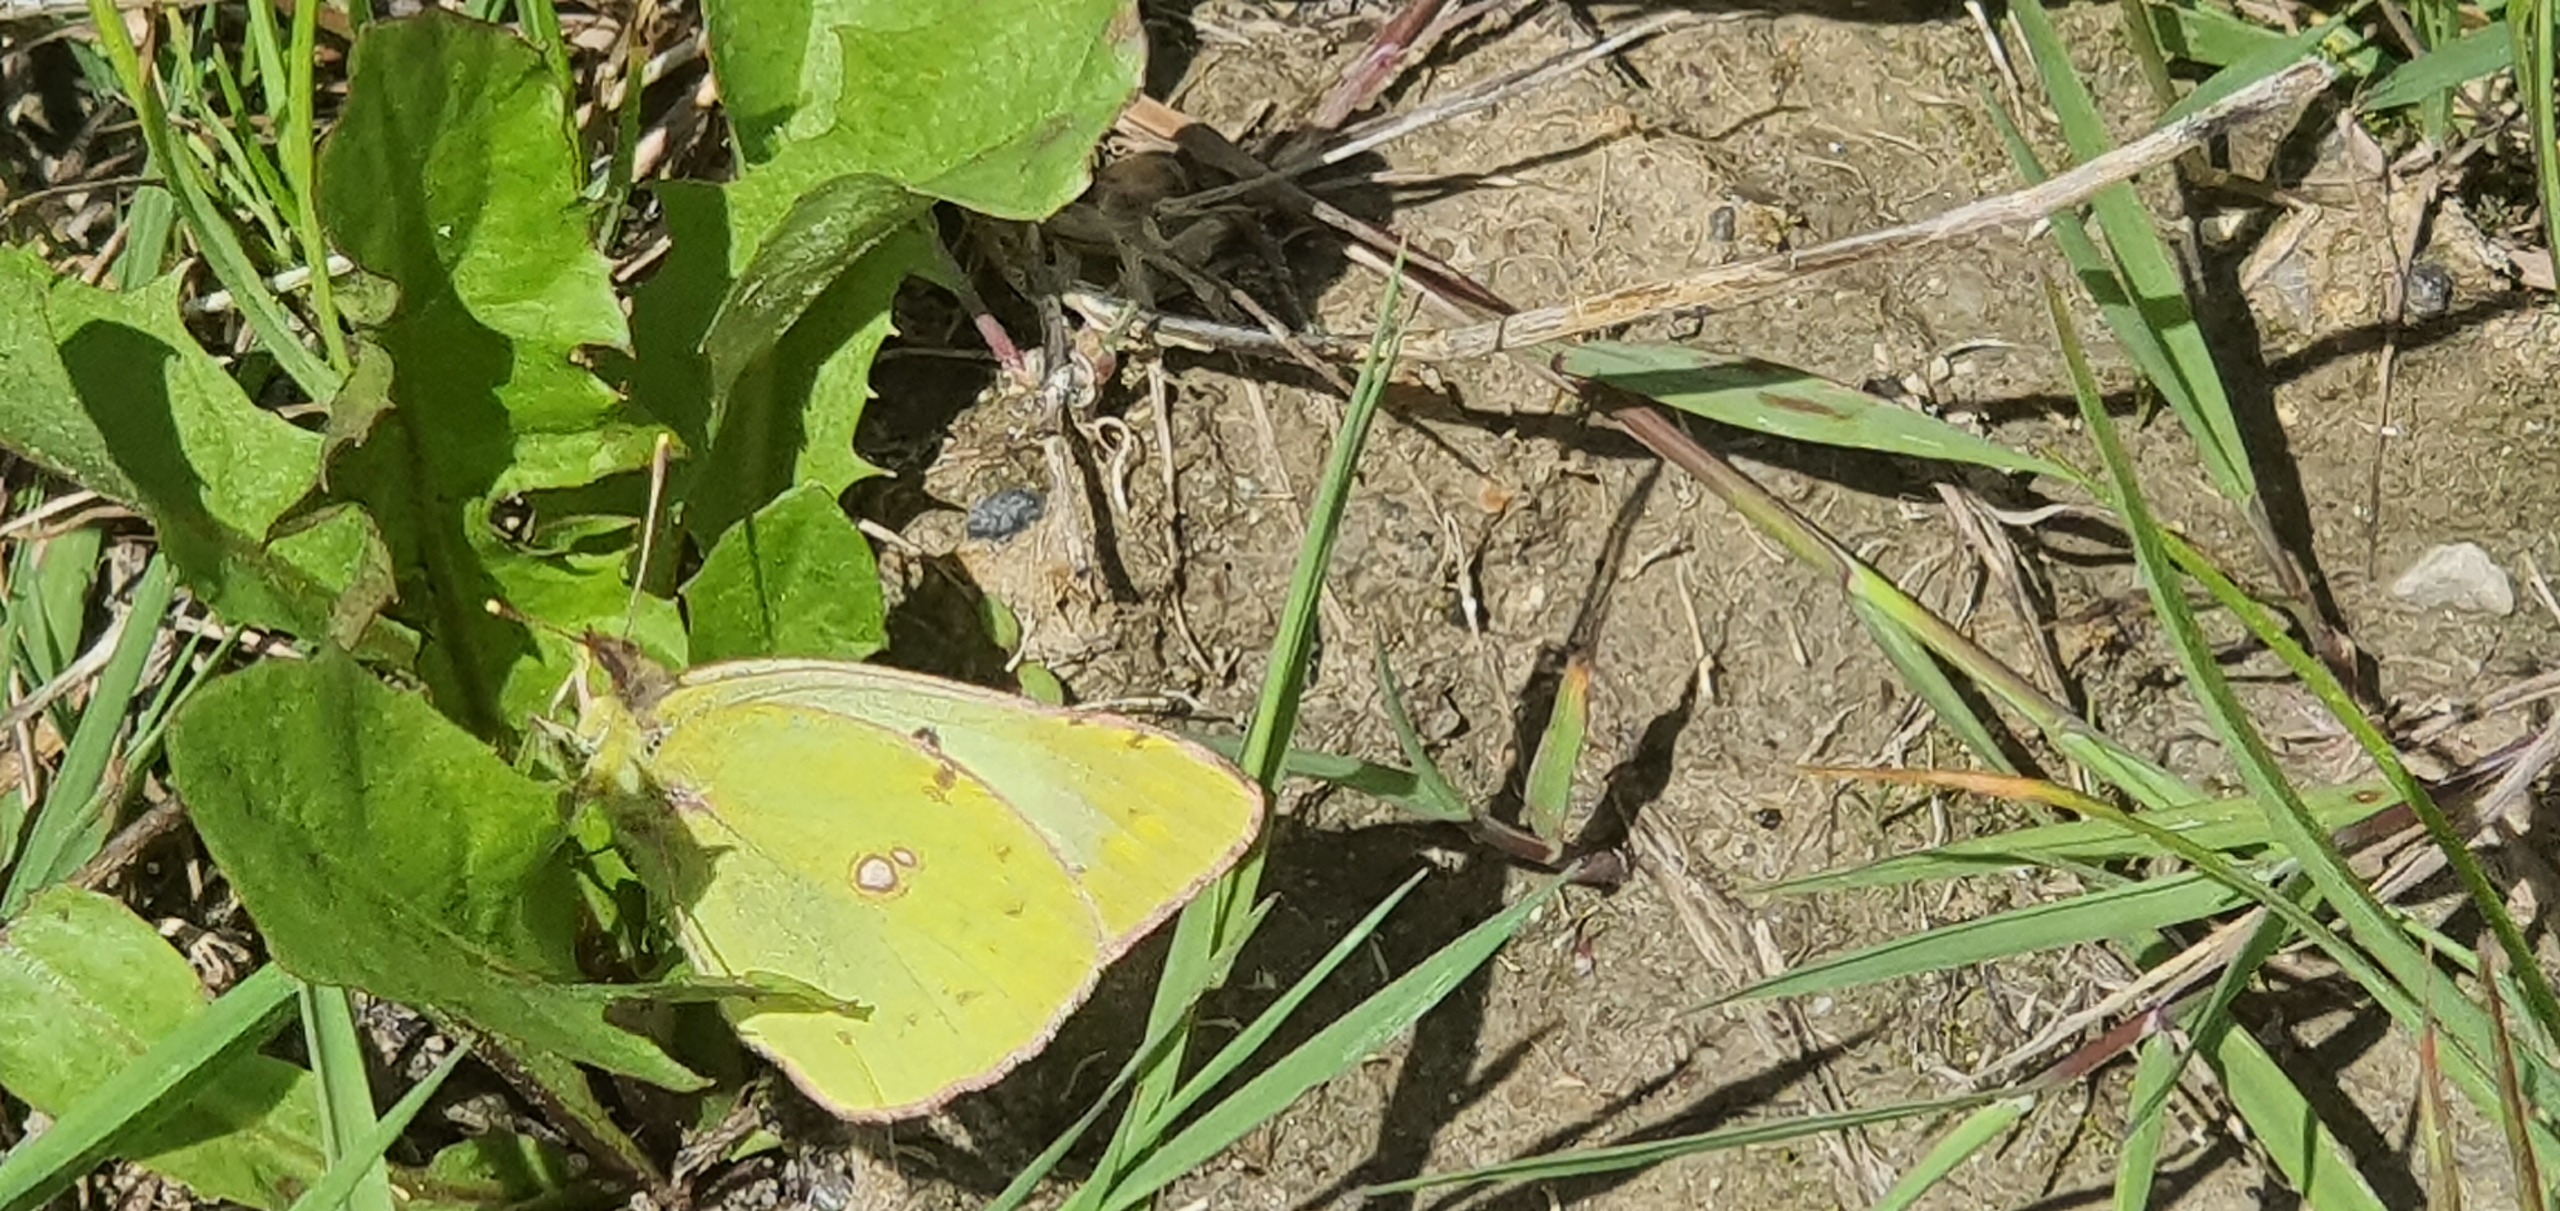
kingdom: Animalia
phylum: Arthropoda
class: Insecta
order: Lepidoptera
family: Pieridae
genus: Colias
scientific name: Colias hyale
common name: Gul høsommerfugl
